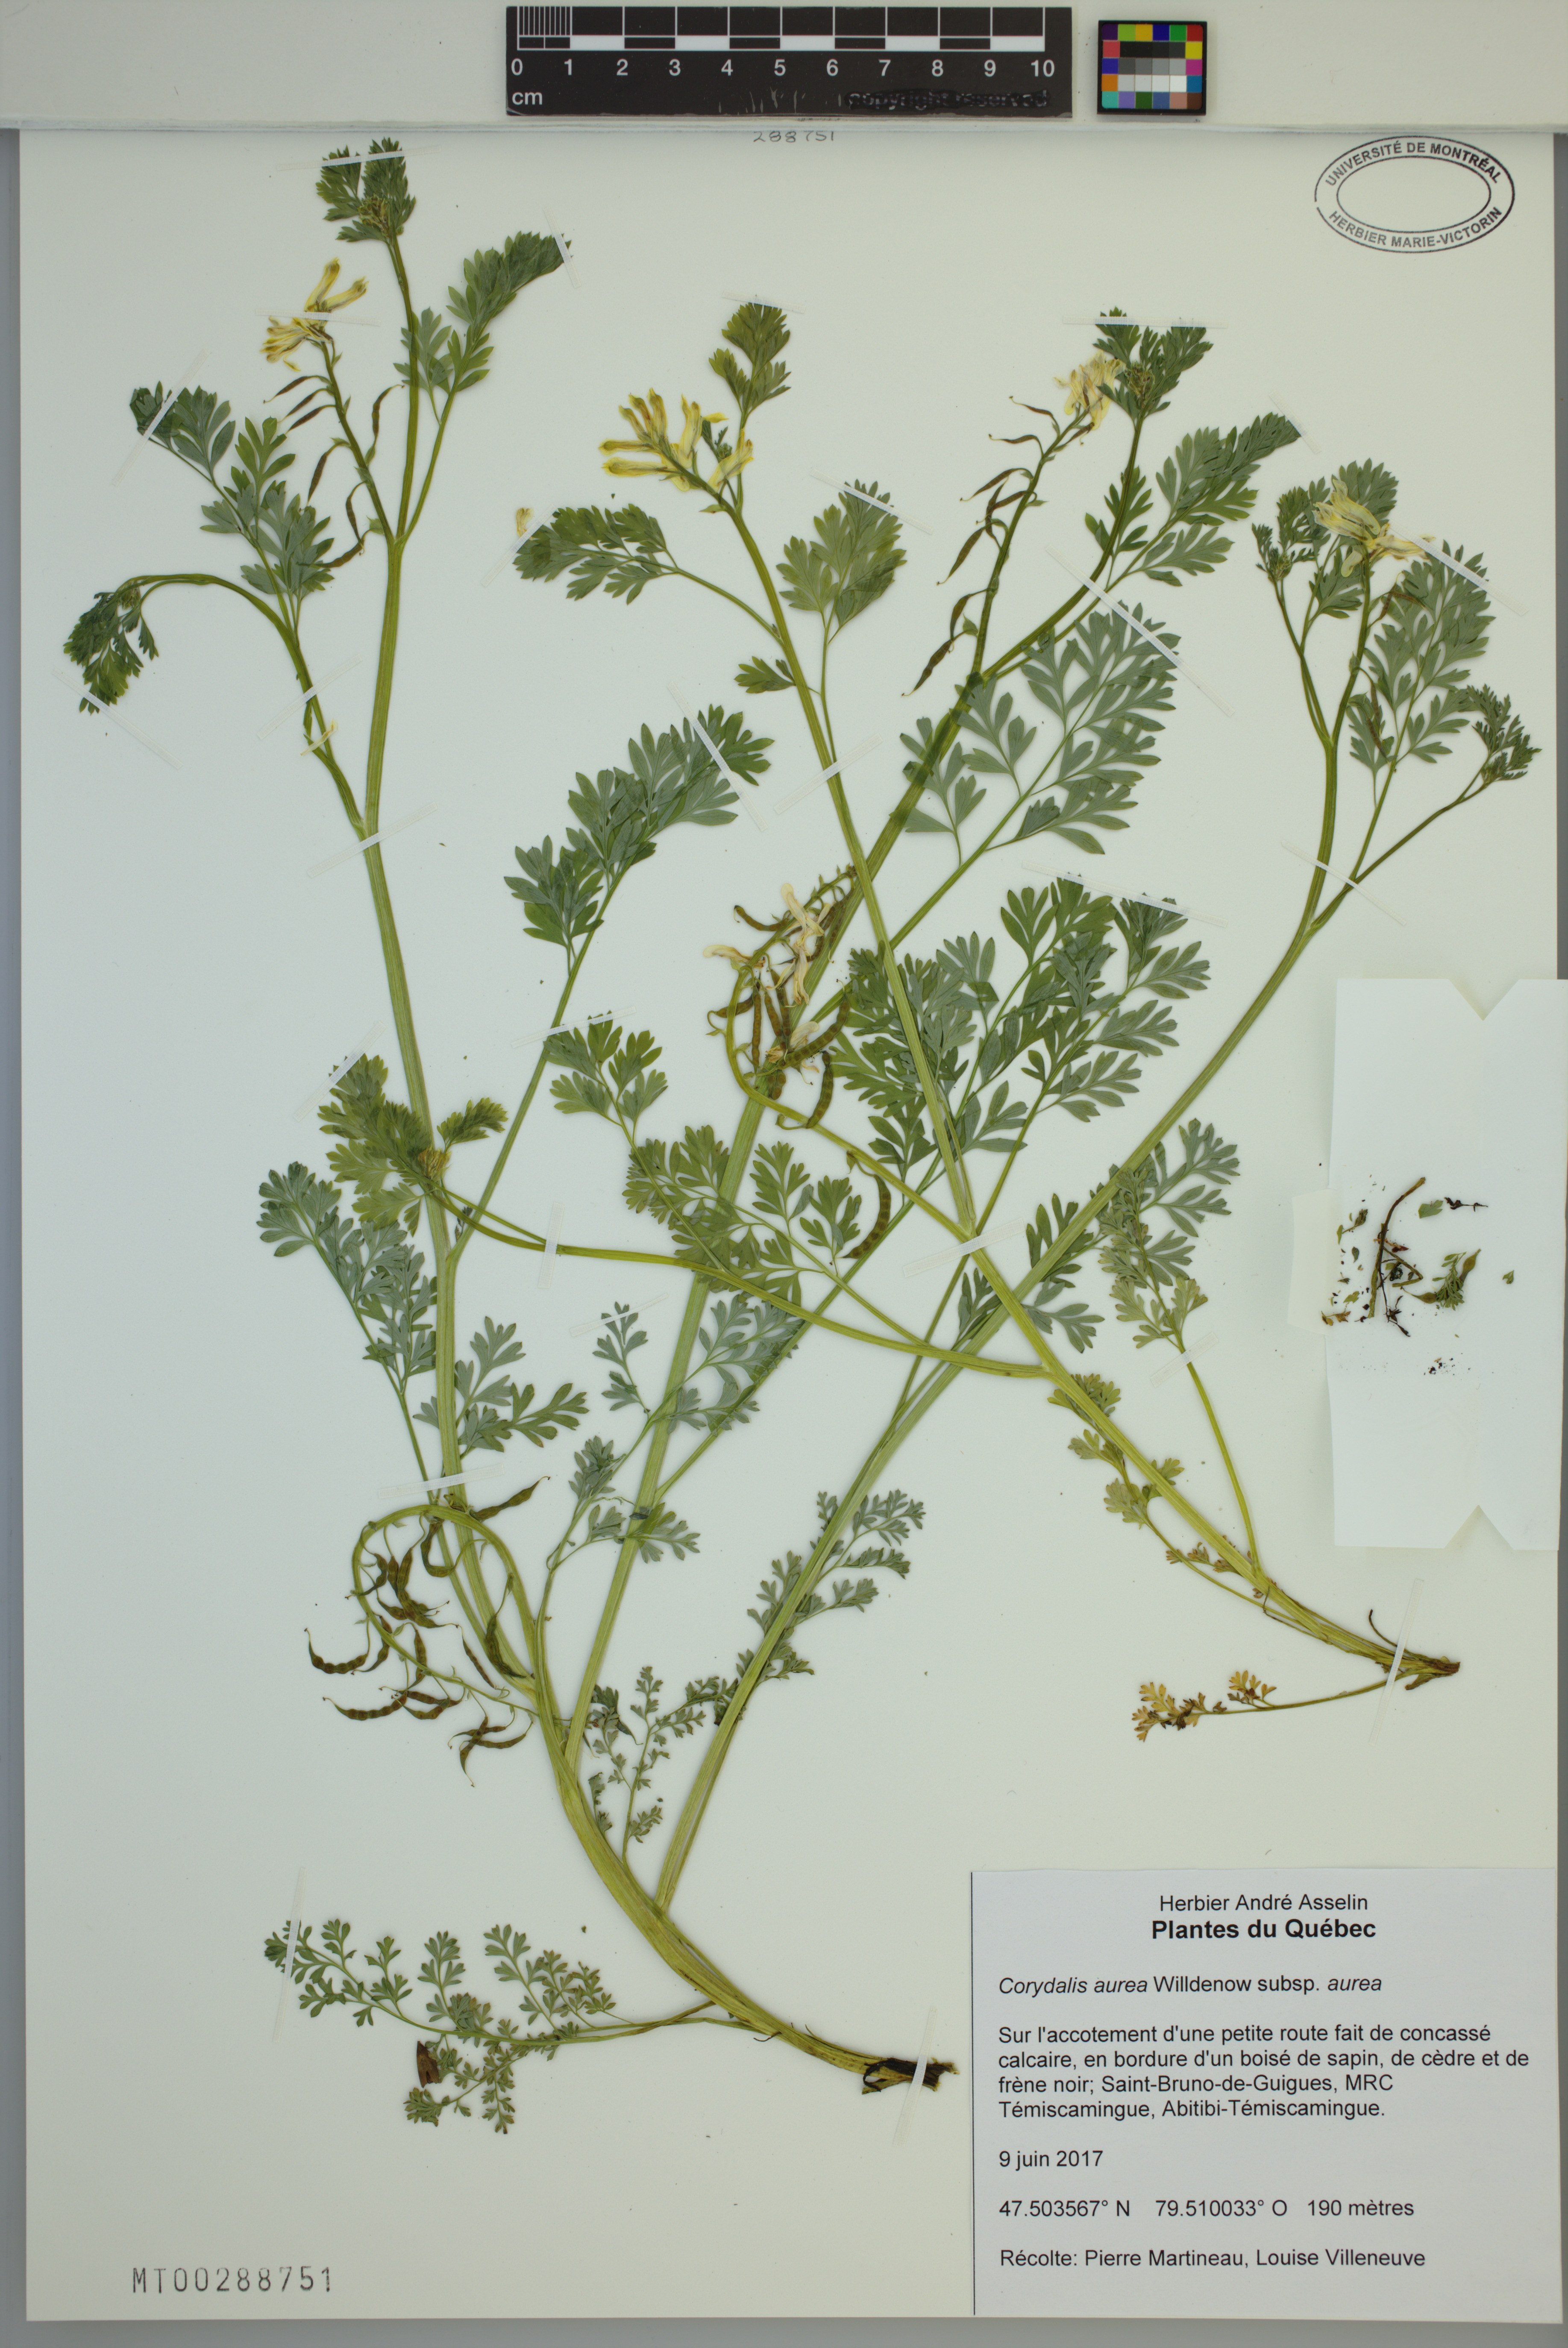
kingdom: Plantae
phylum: Tracheophyta
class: Magnoliopsida
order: Ranunculales
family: Papaveraceae
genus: Corydalis
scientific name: Corydalis aurea
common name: Golden corydalis
